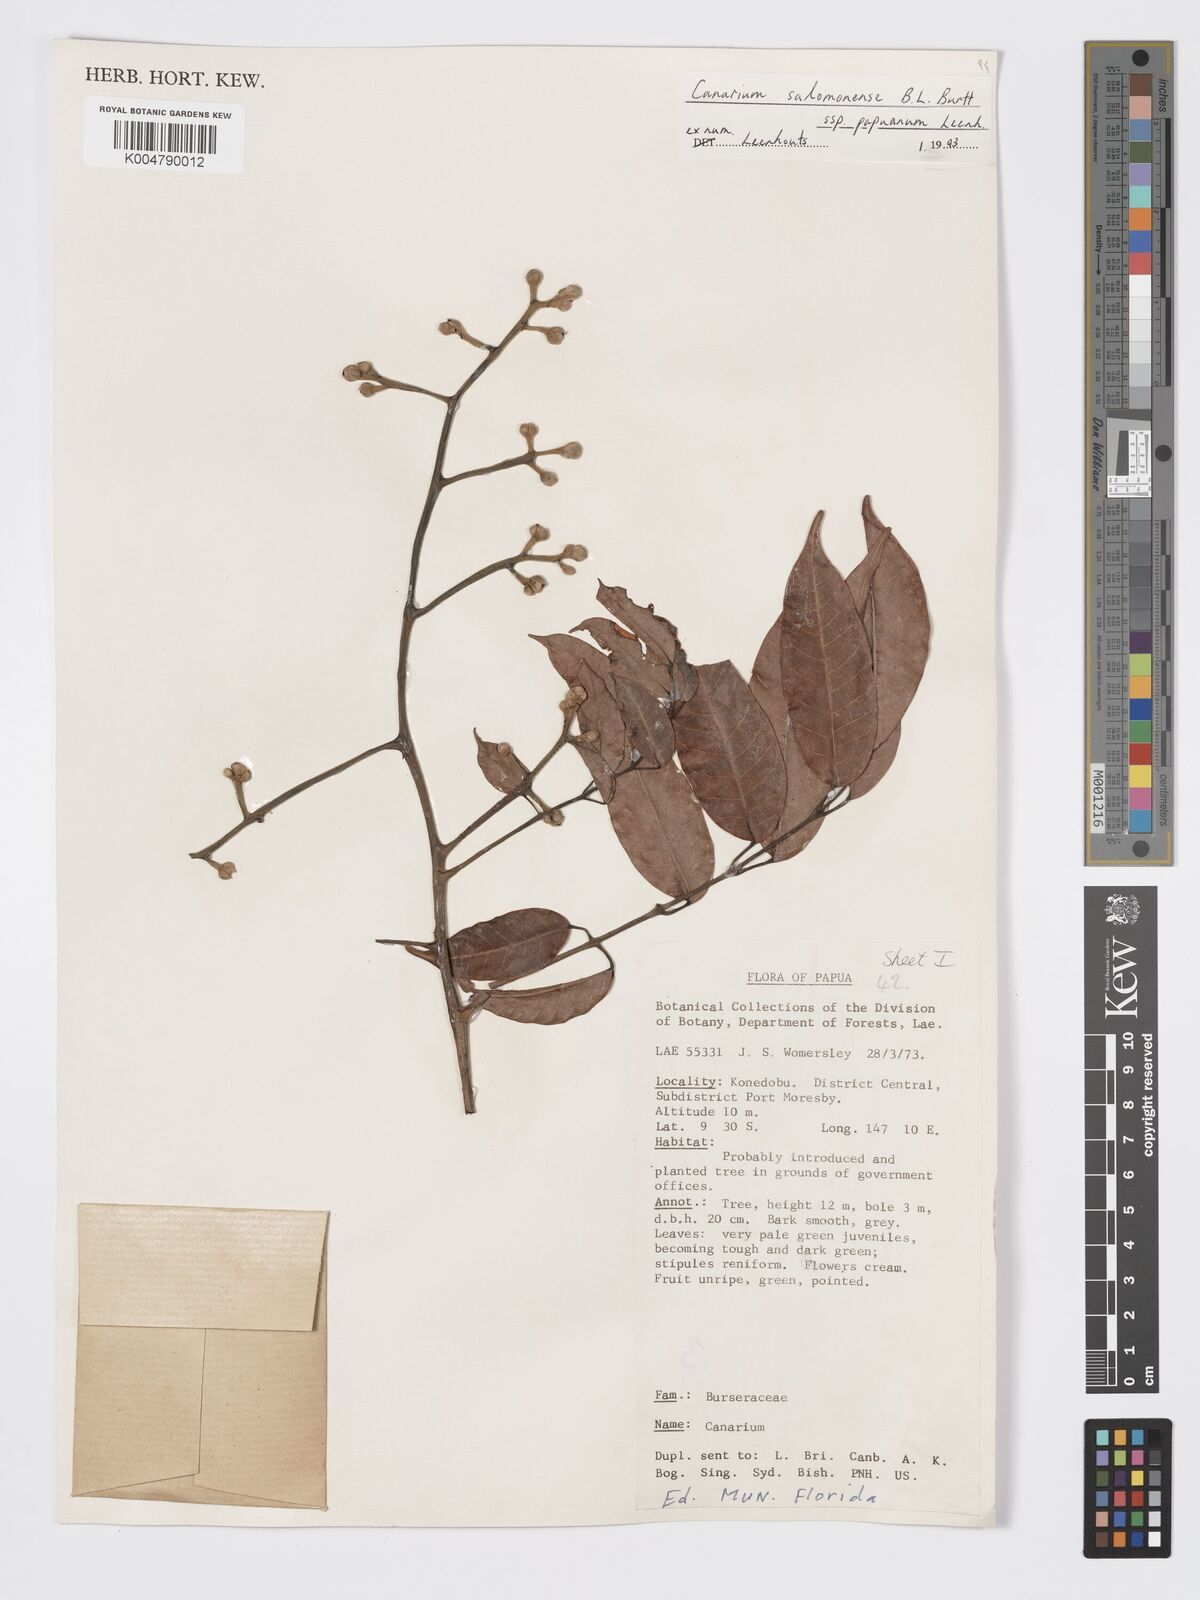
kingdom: Plantae
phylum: Tracheophyta
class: Magnoliopsida
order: Sapindales
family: Burseraceae
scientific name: Burseraceae
